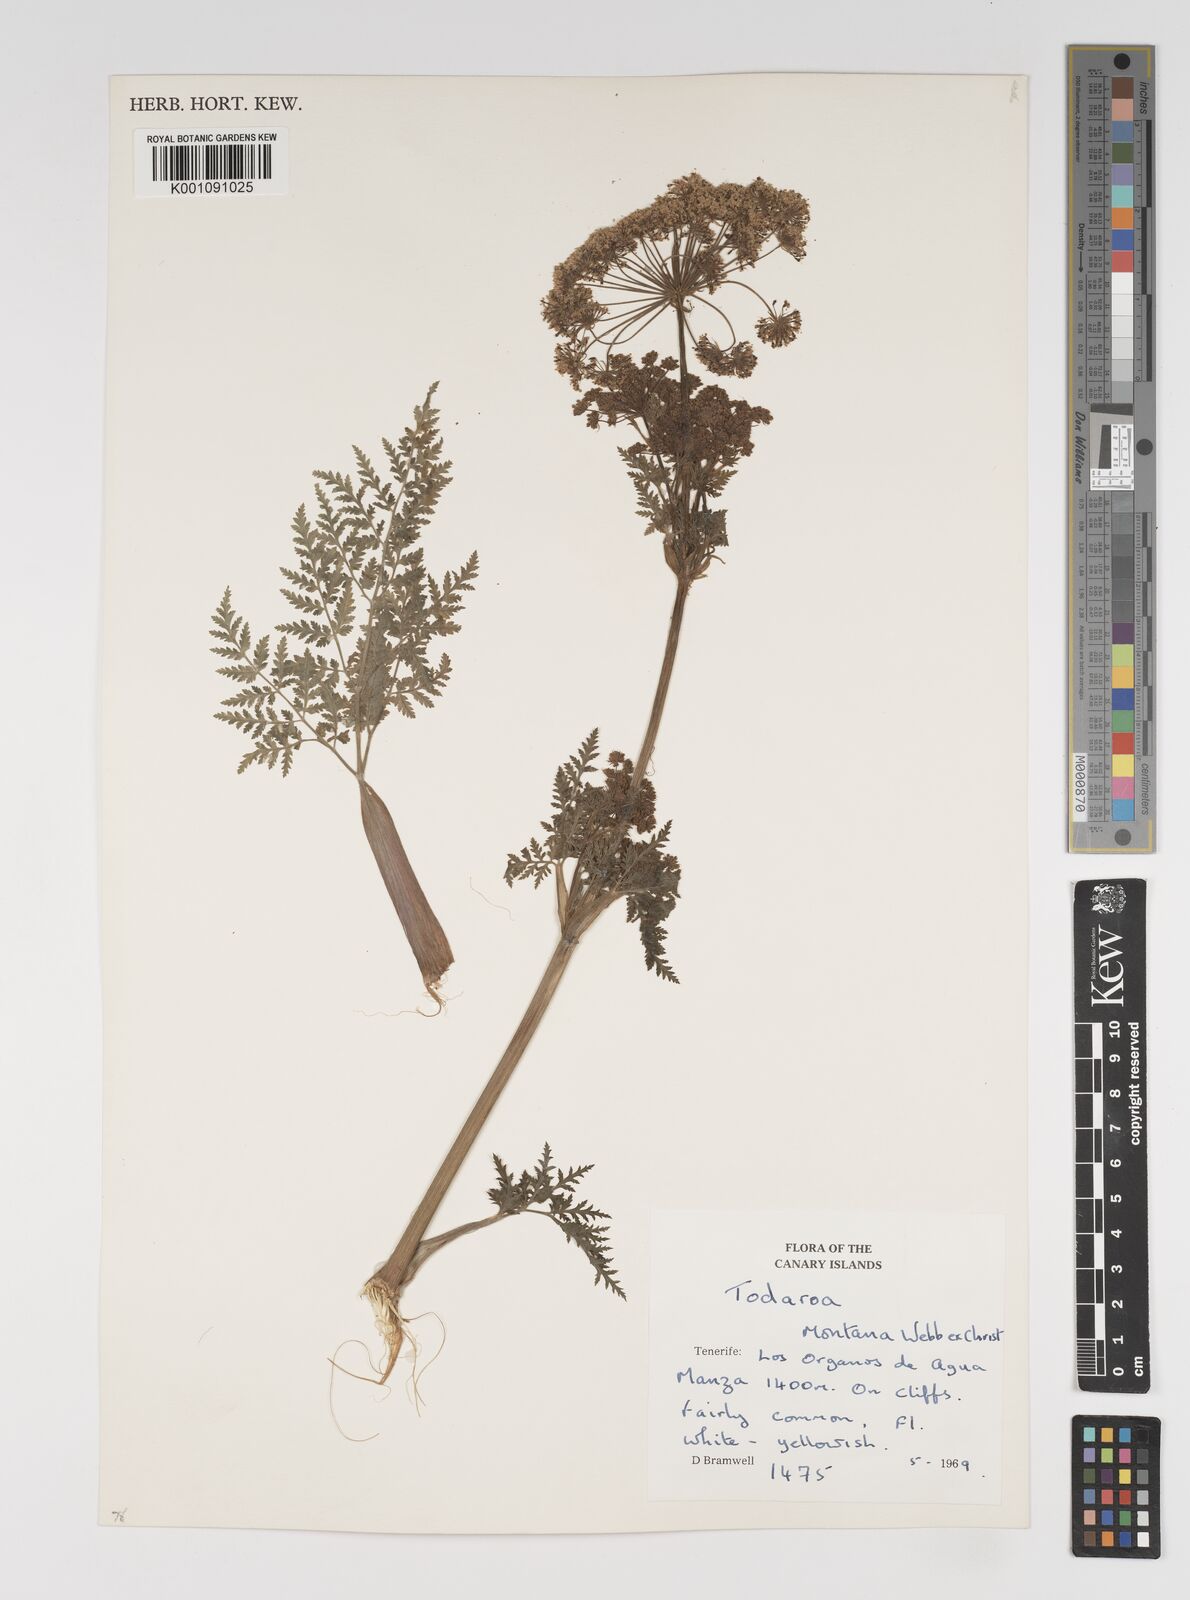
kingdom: Plantae
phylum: Tracheophyta
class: Magnoliopsida
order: Apiales
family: Apiaceae
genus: Athamanta
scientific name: Athamanta montana
